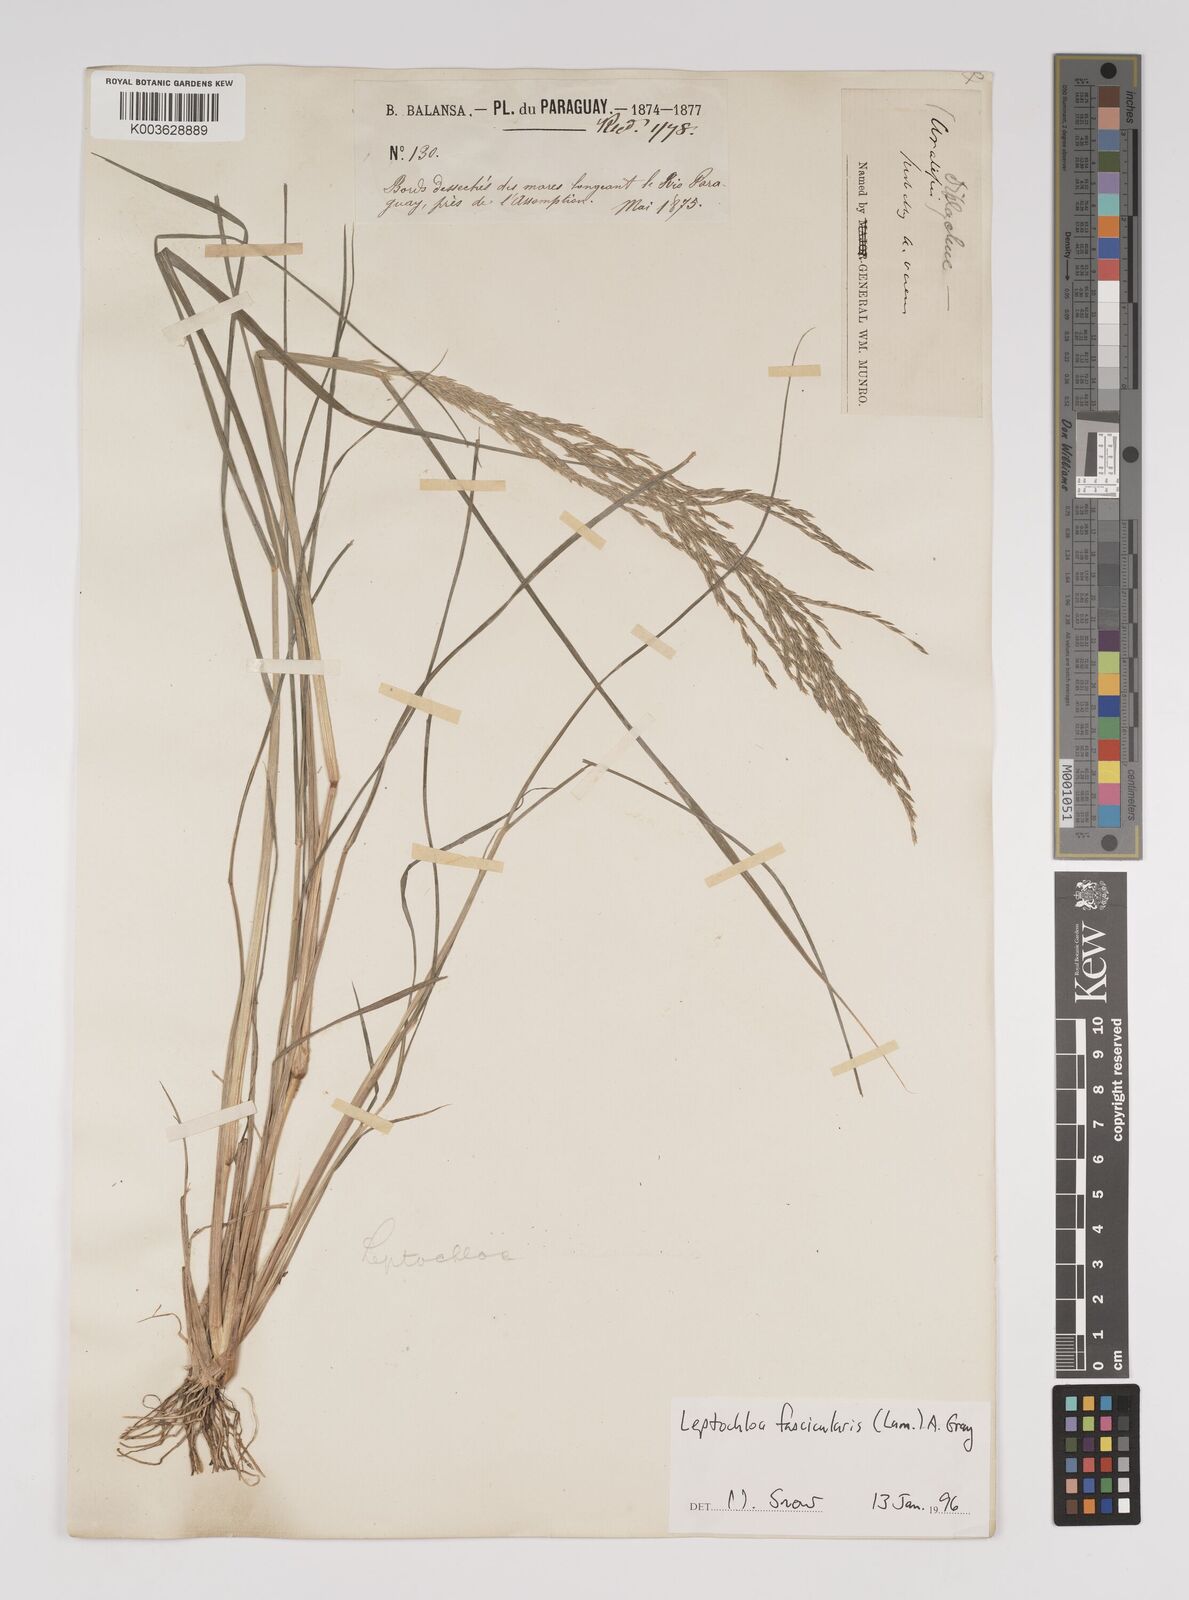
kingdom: Plantae
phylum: Tracheophyta
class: Liliopsida
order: Poales
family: Poaceae
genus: Diplachne
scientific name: Diplachne fusca
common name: Brown beetle grass
